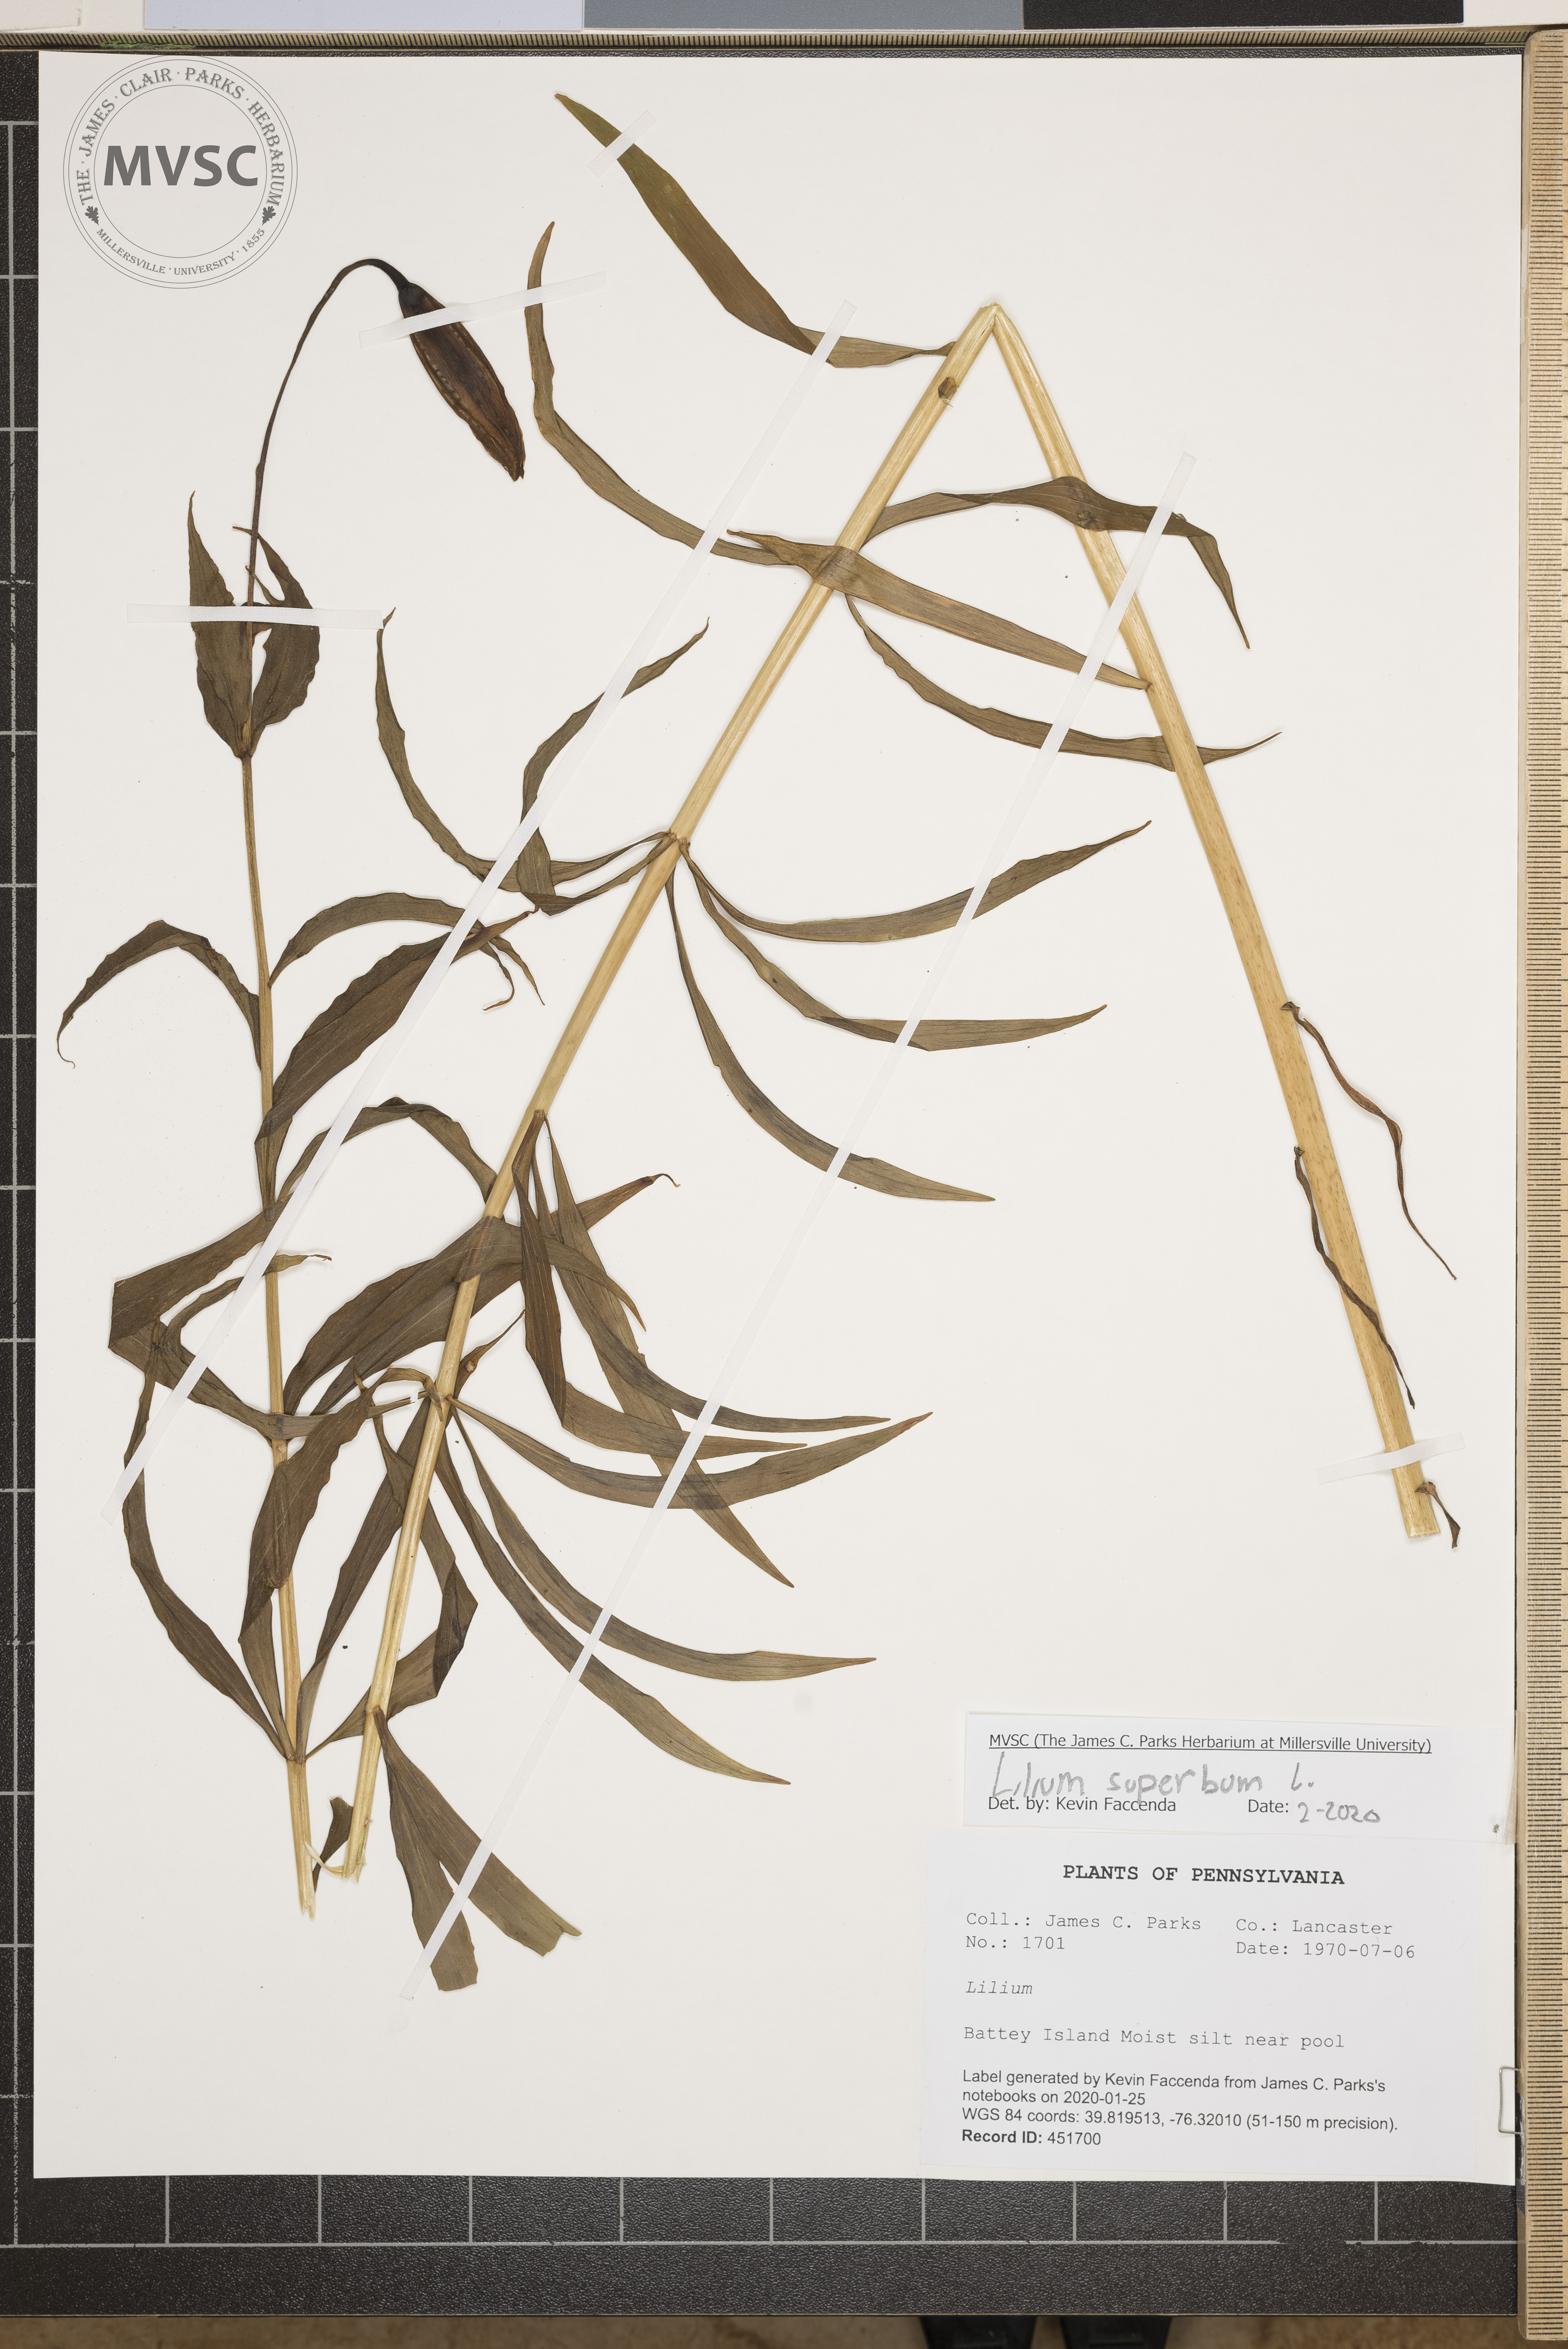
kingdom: Plantae
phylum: Tracheophyta
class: Liliopsida
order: Liliales
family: Liliaceae
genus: Lilium
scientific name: Lilium superbum
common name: American turk's-cap lily
